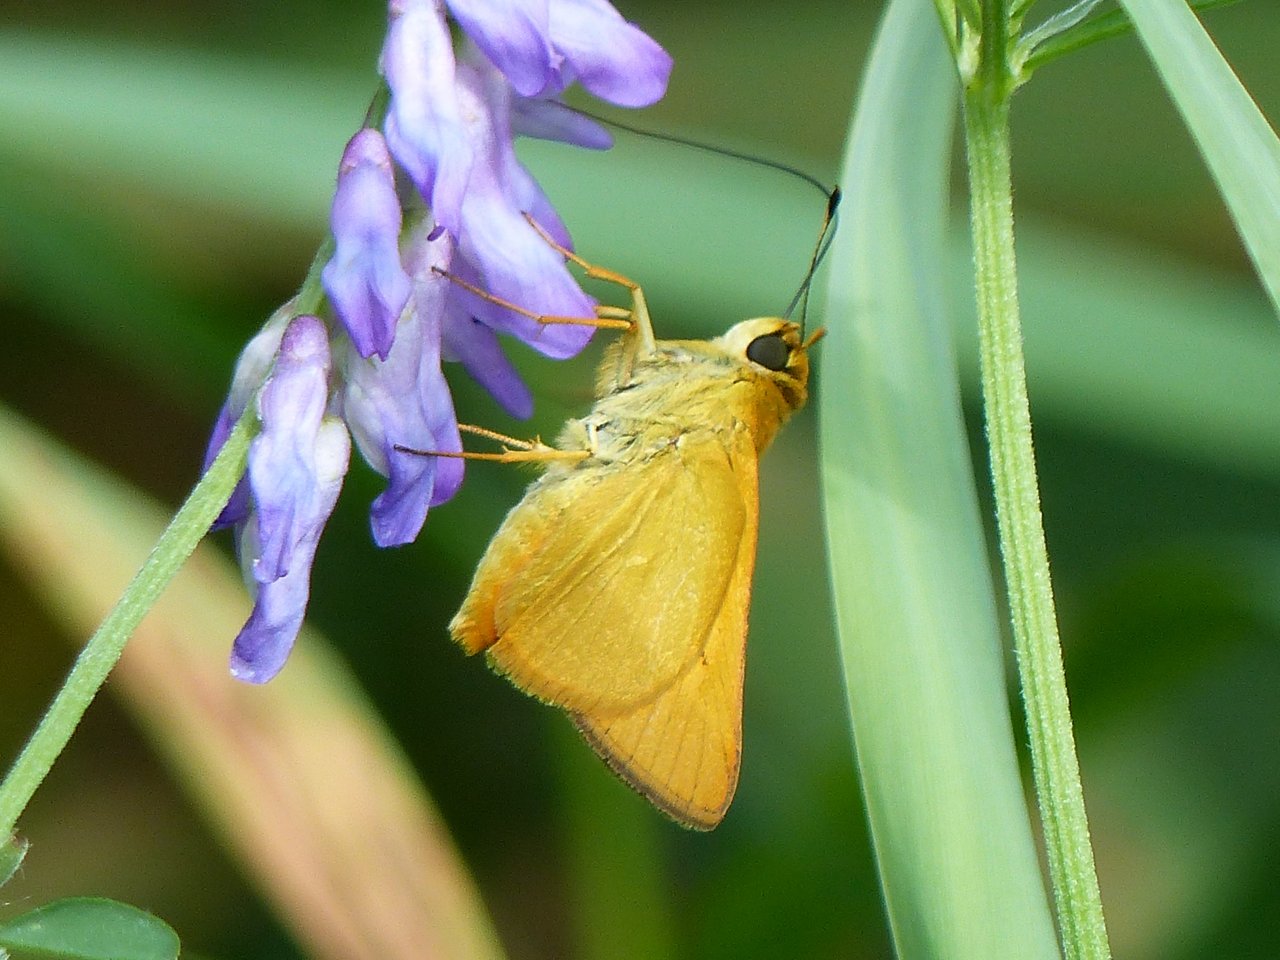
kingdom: Animalia
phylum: Arthropoda
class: Insecta
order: Lepidoptera
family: Hesperiidae
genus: Atrytone
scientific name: Atrytone delaware
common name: Delaware Skipper
